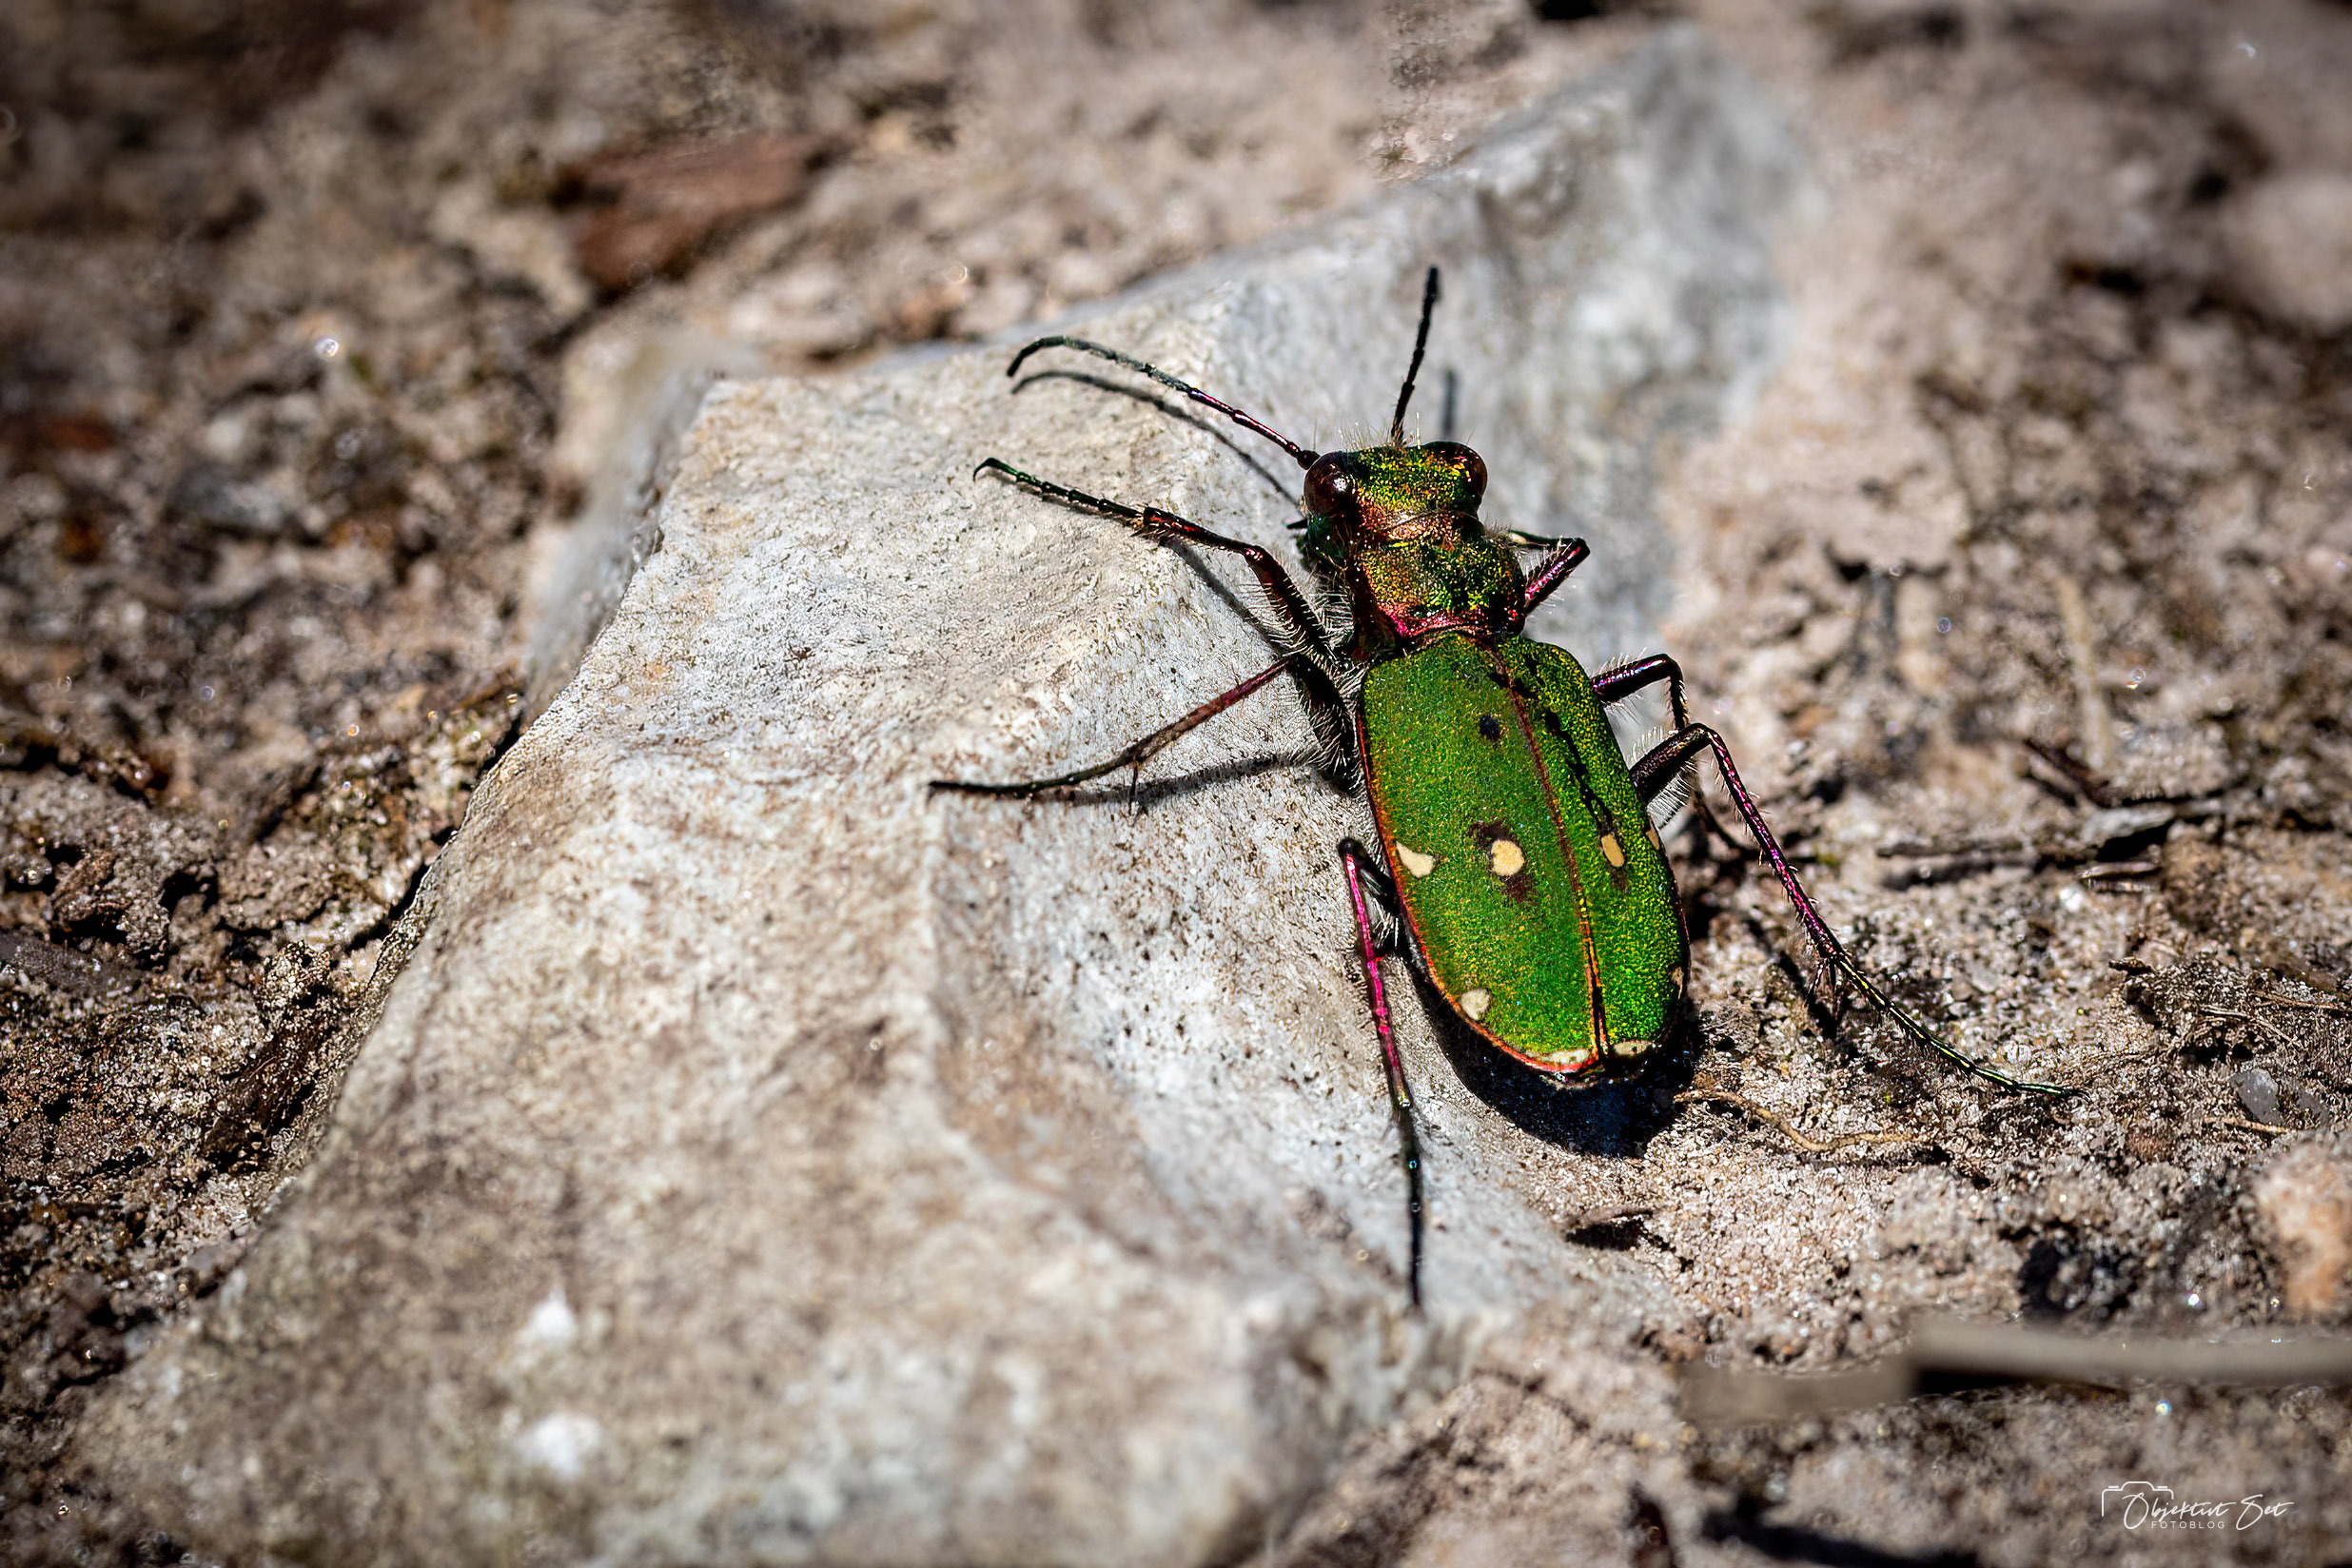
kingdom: Animalia
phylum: Arthropoda
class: Insecta
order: Coleoptera
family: Carabidae
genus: Cicindela
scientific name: Cicindela campestris
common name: Grøn sandspringer
